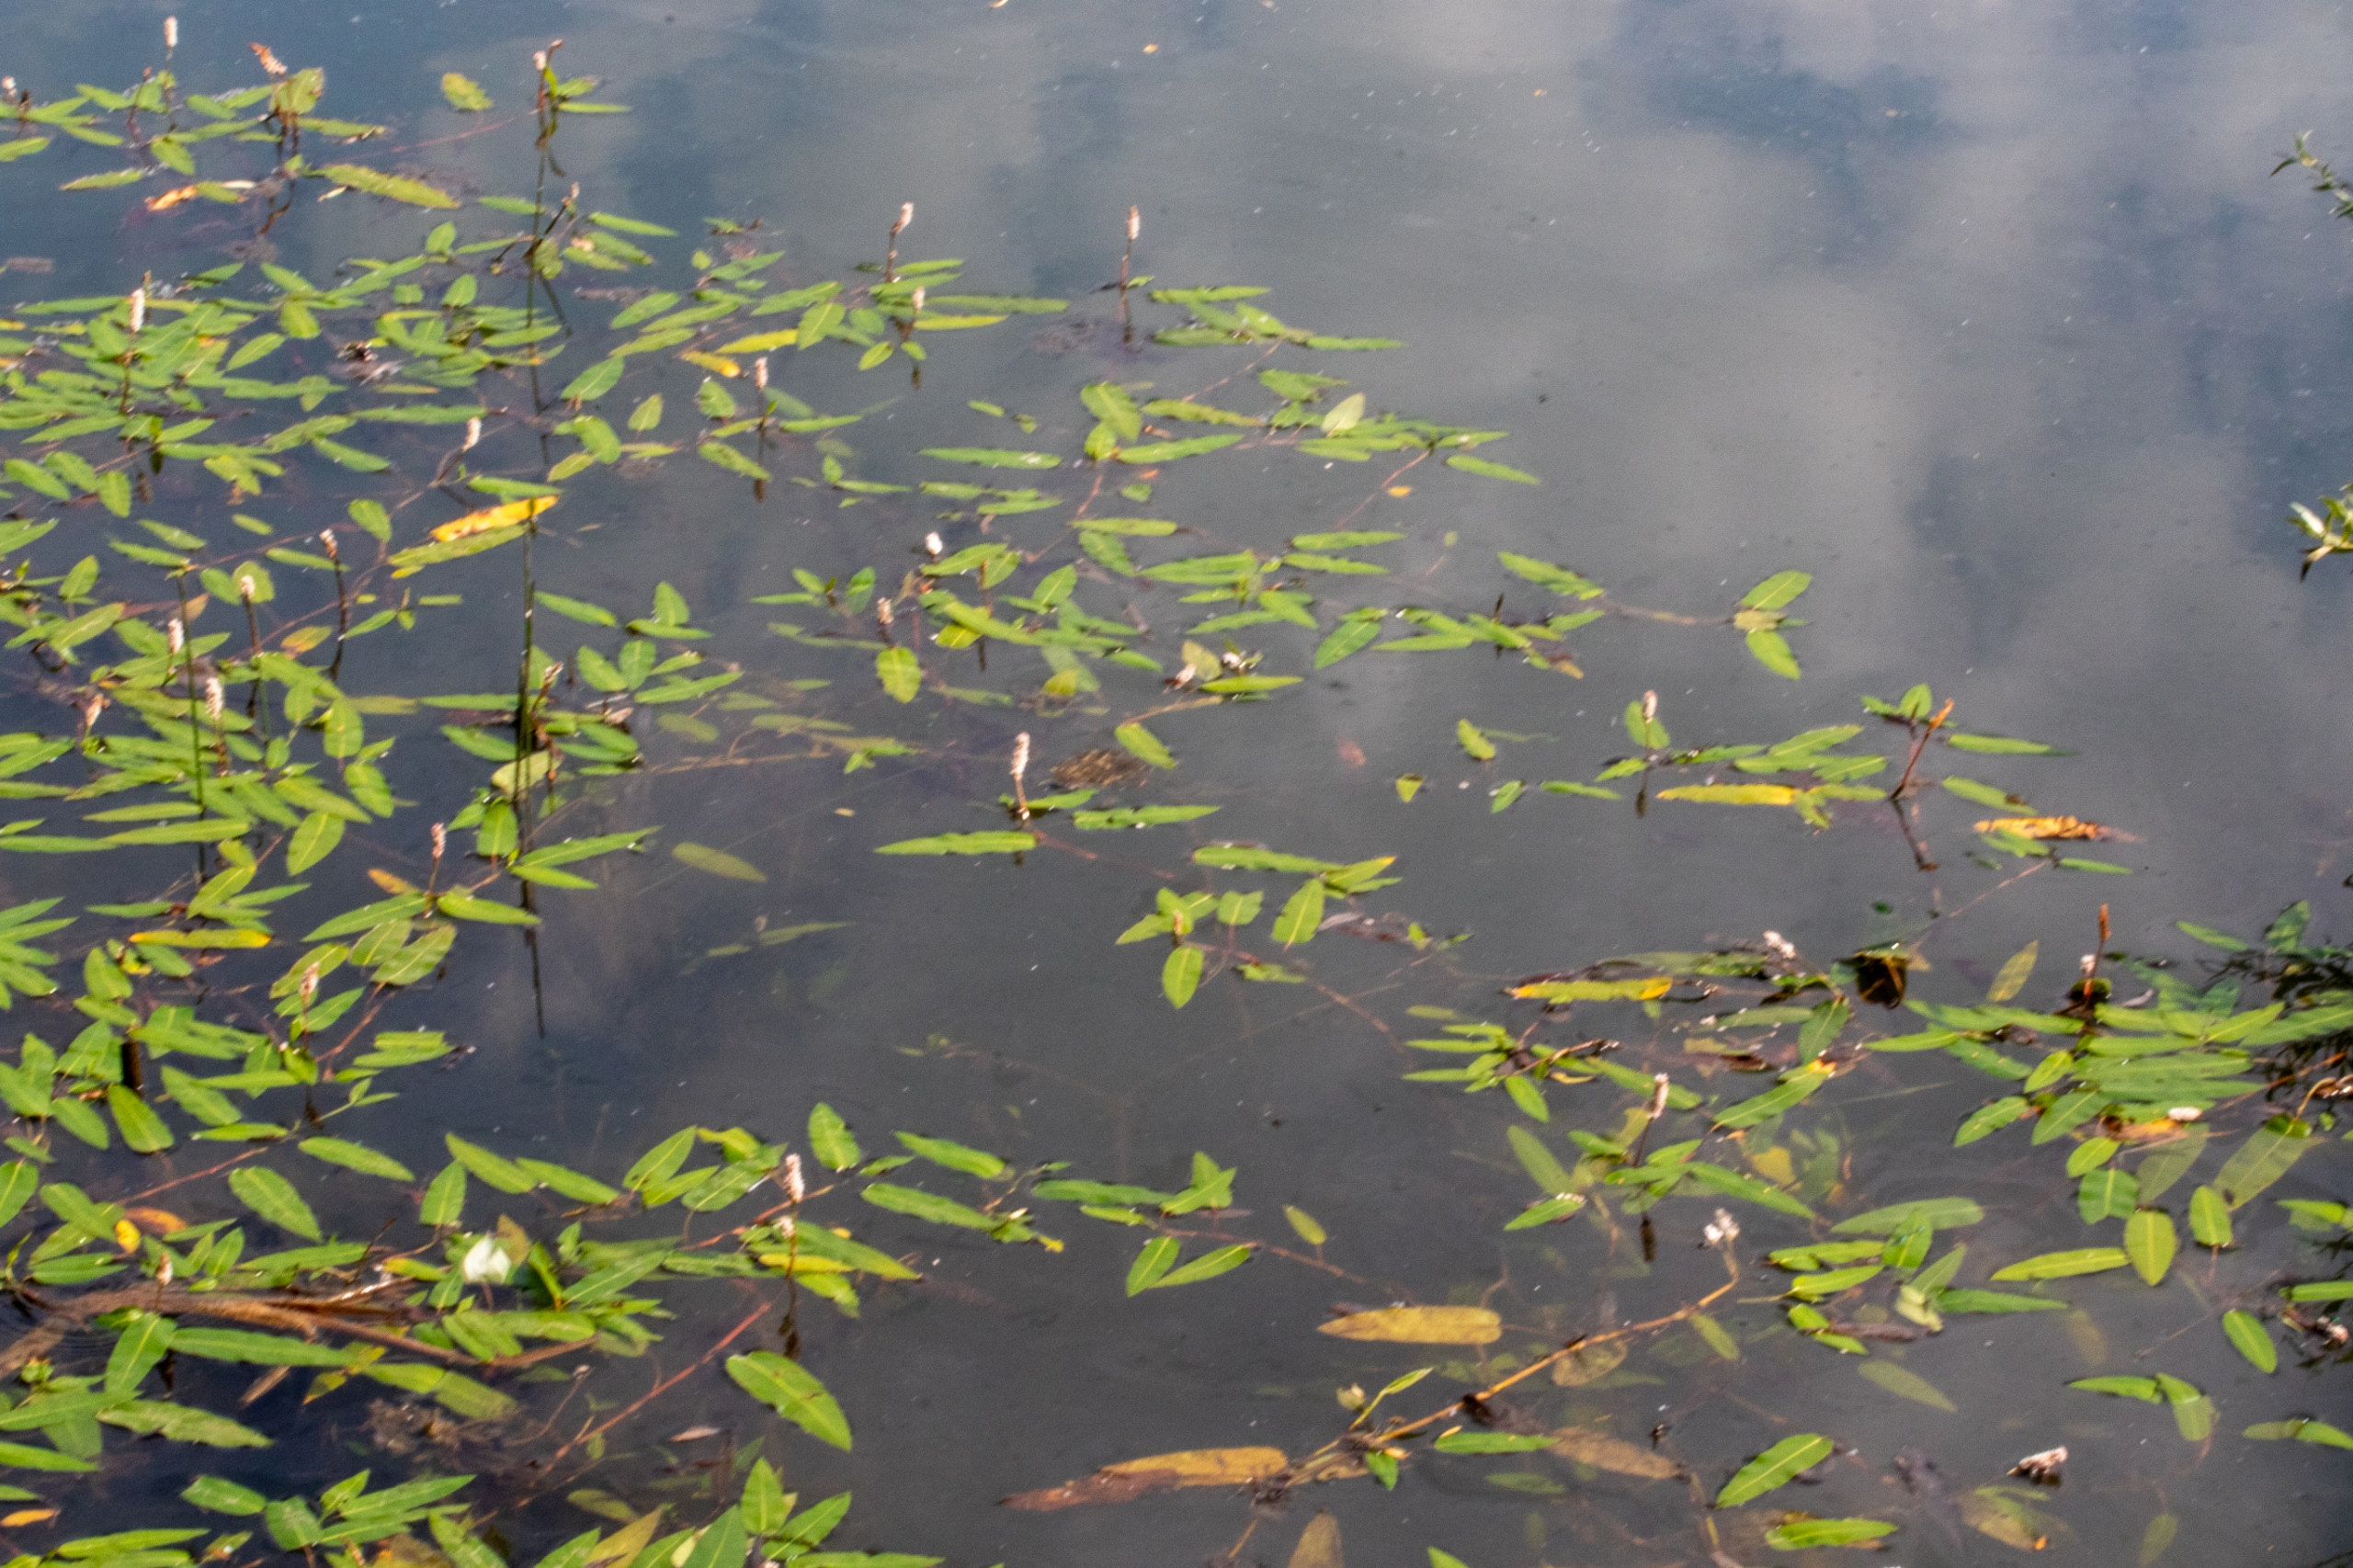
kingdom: Plantae
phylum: Tracheophyta
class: Magnoliopsida
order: Caryophyllales
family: Polygonaceae
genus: Persicaria
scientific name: Persicaria amphibia
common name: Vand-pileurt
